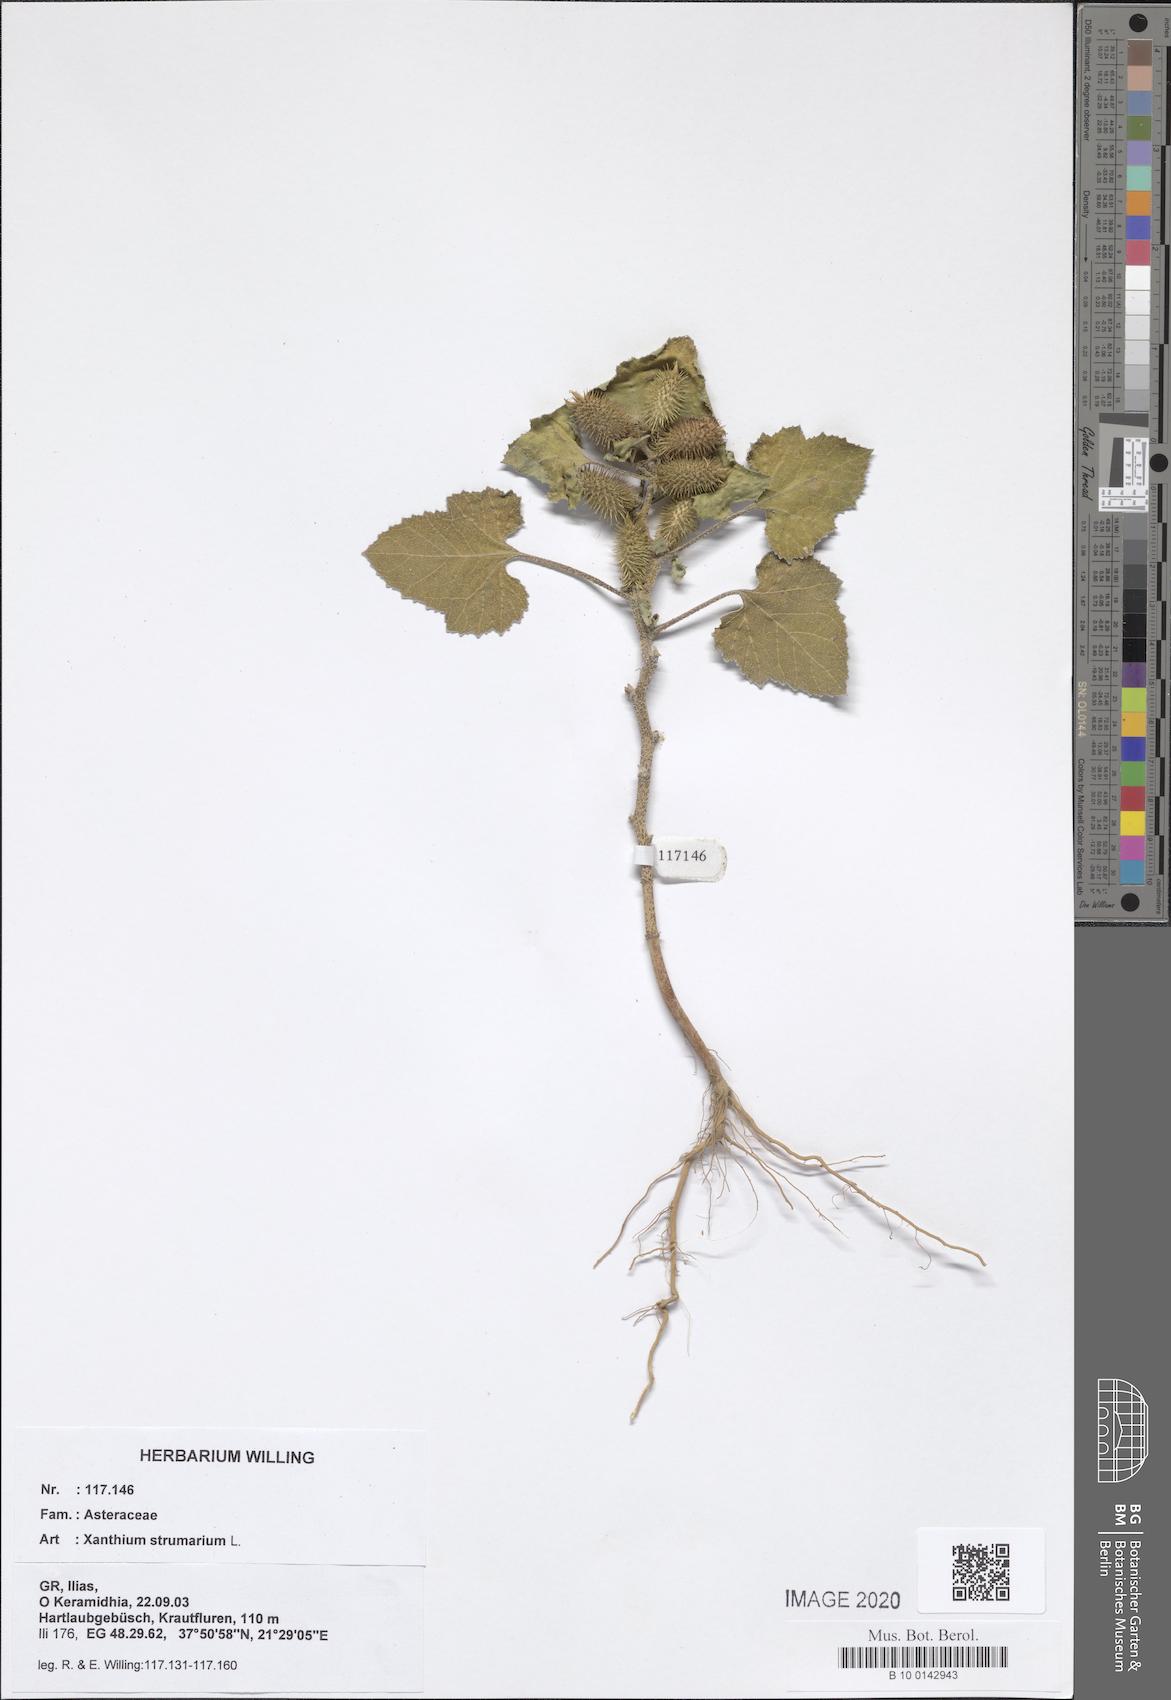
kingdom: Plantae
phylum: Tracheophyta
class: Magnoliopsida
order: Asterales
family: Asteraceae
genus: Xanthium
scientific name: Xanthium strumarium
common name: Rough cocklebur
